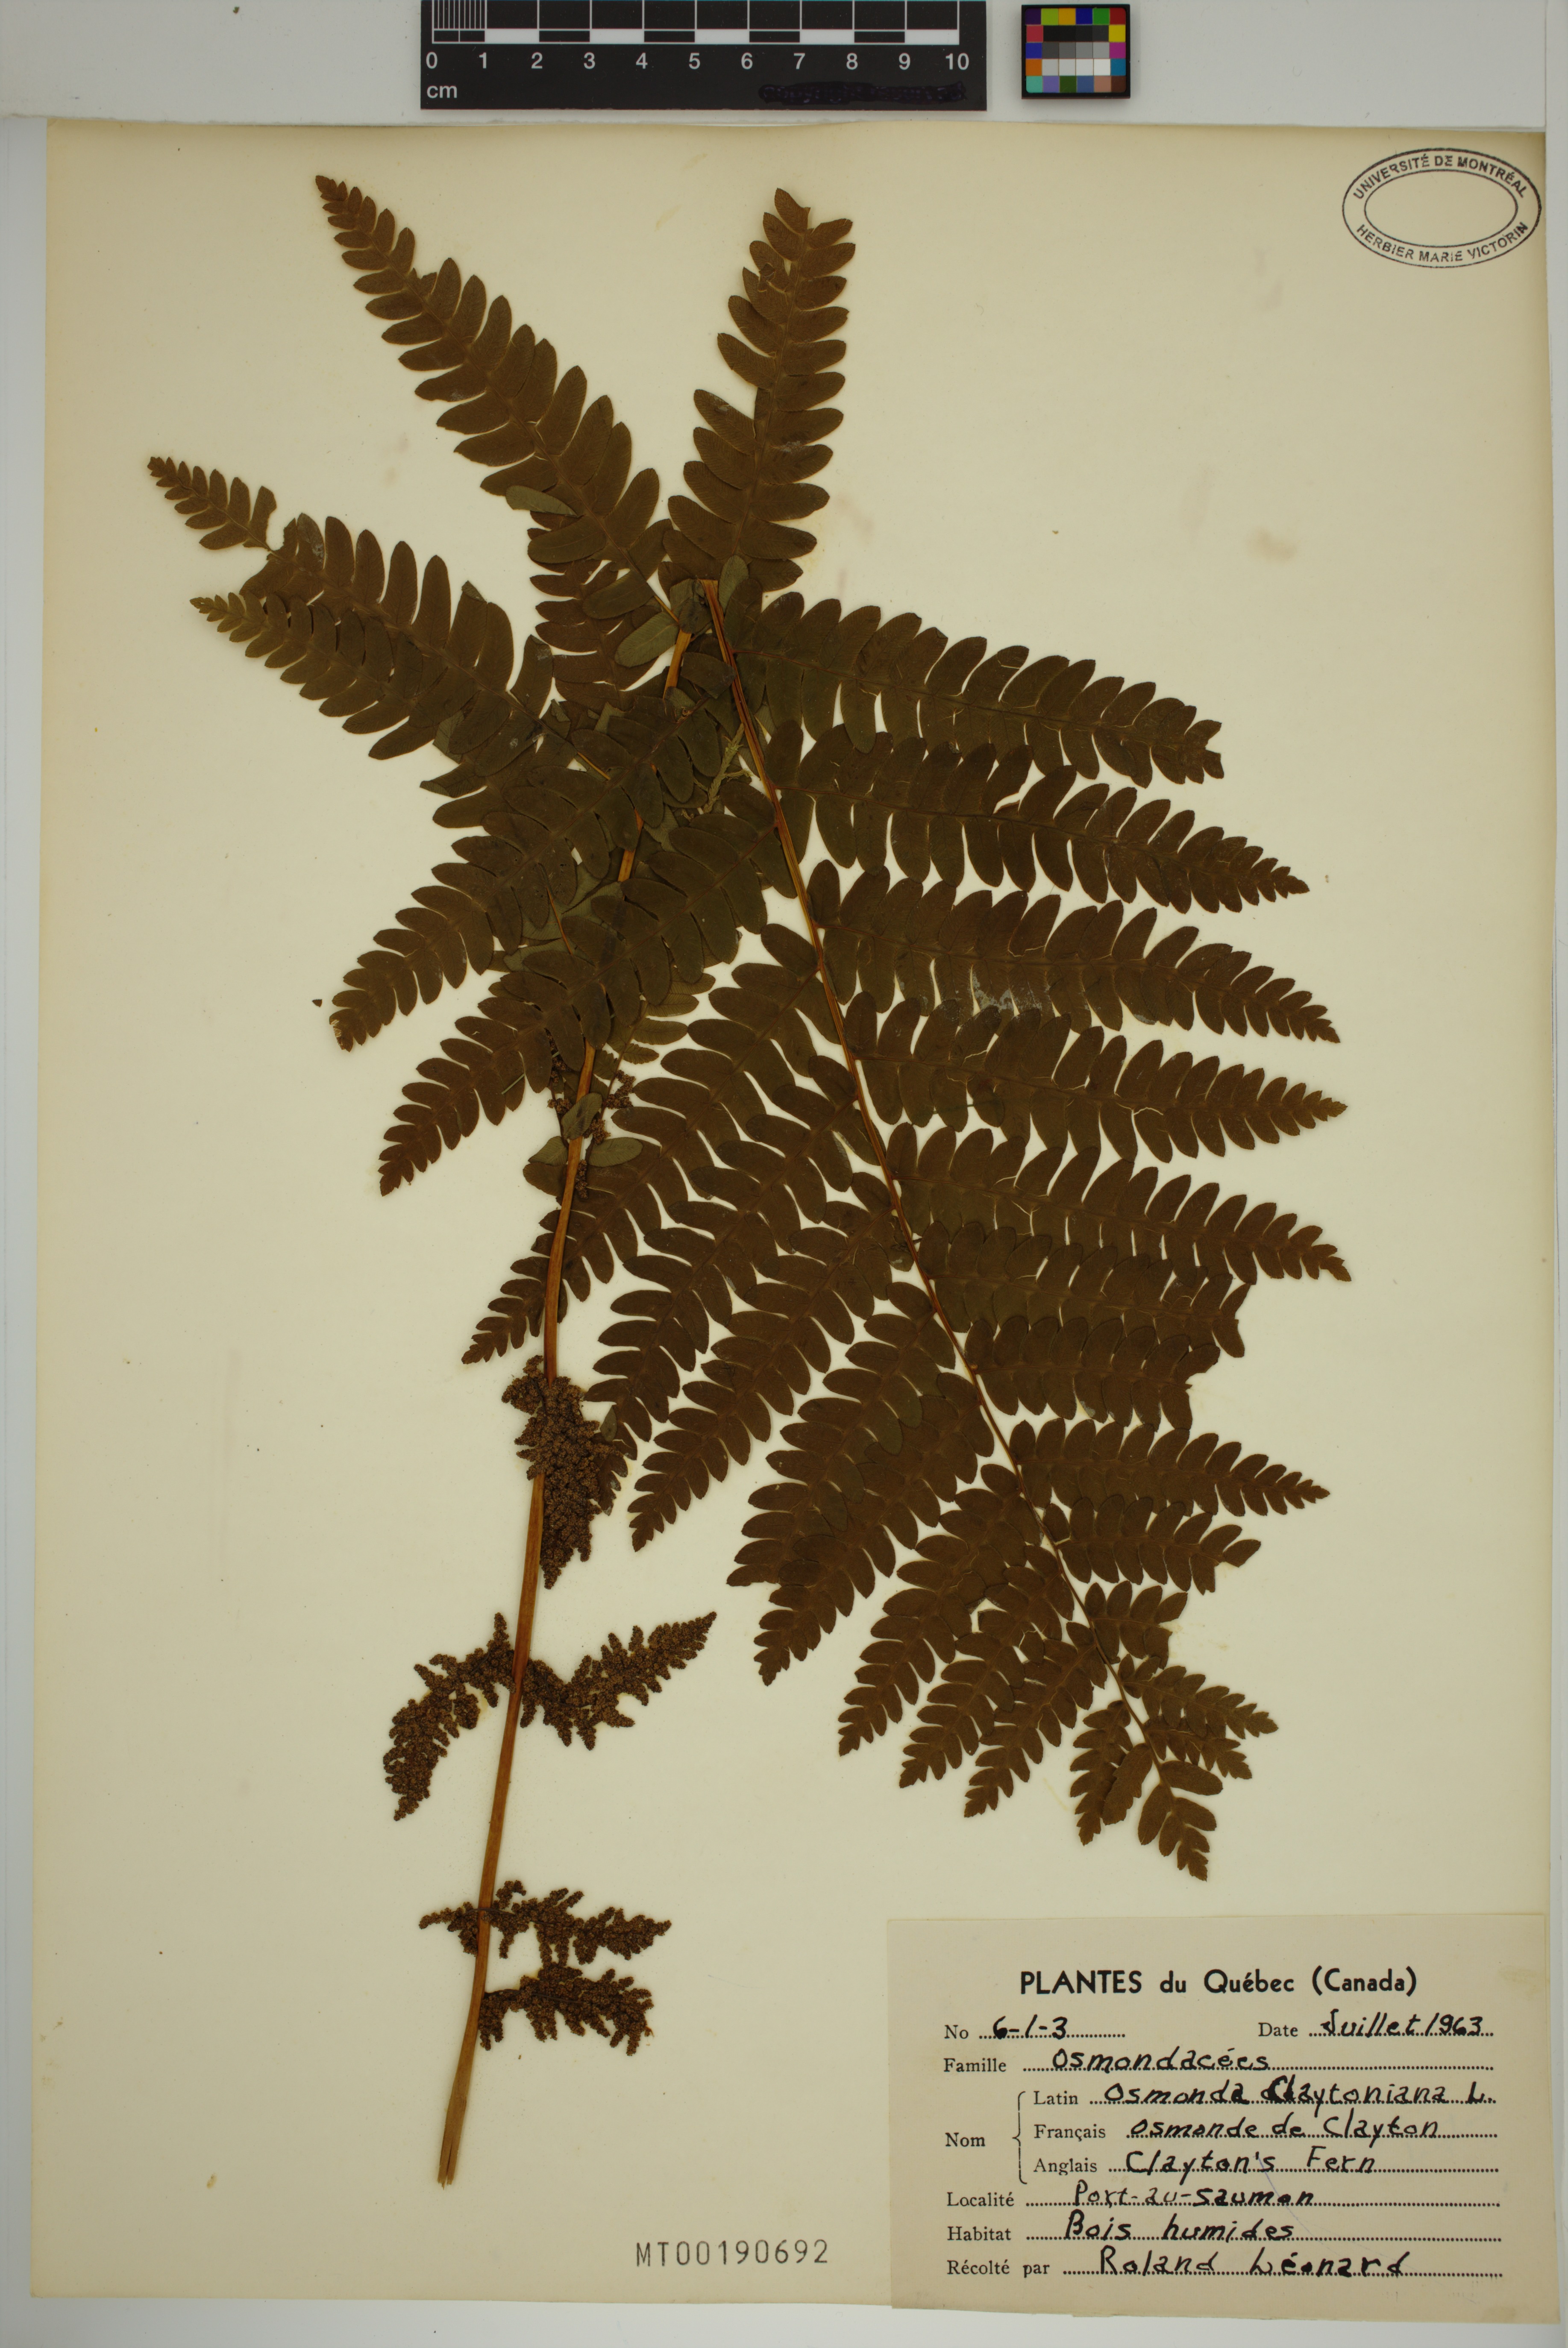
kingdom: Plantae
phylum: Tracheophyta
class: Polypodiopsida
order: Osmundales
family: Osmundaceae
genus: Claytosmunda
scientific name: Claytosmunda claytoniana
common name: Clayton's fern
